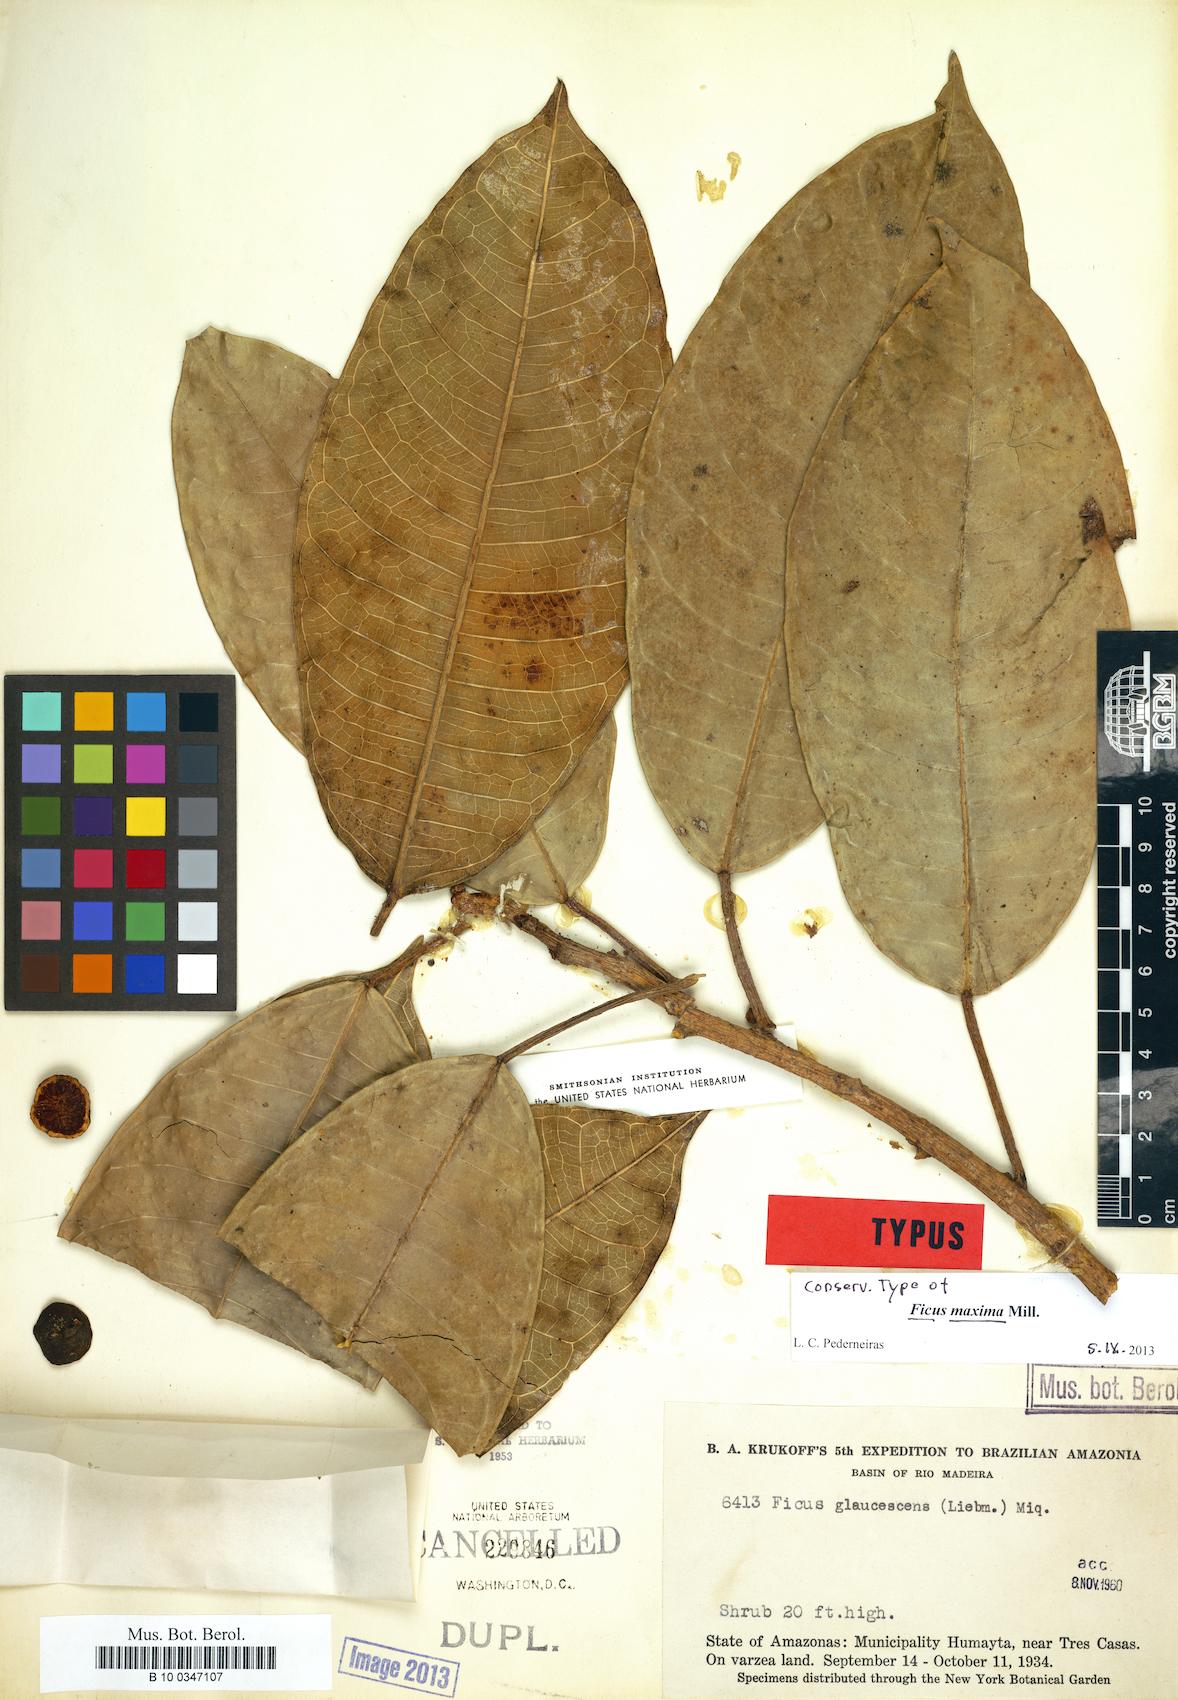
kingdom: Plantae
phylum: Tracheophyta
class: Magnoliopsida
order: Rosales
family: Moraceae
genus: Ficus
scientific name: Ficus maxima
